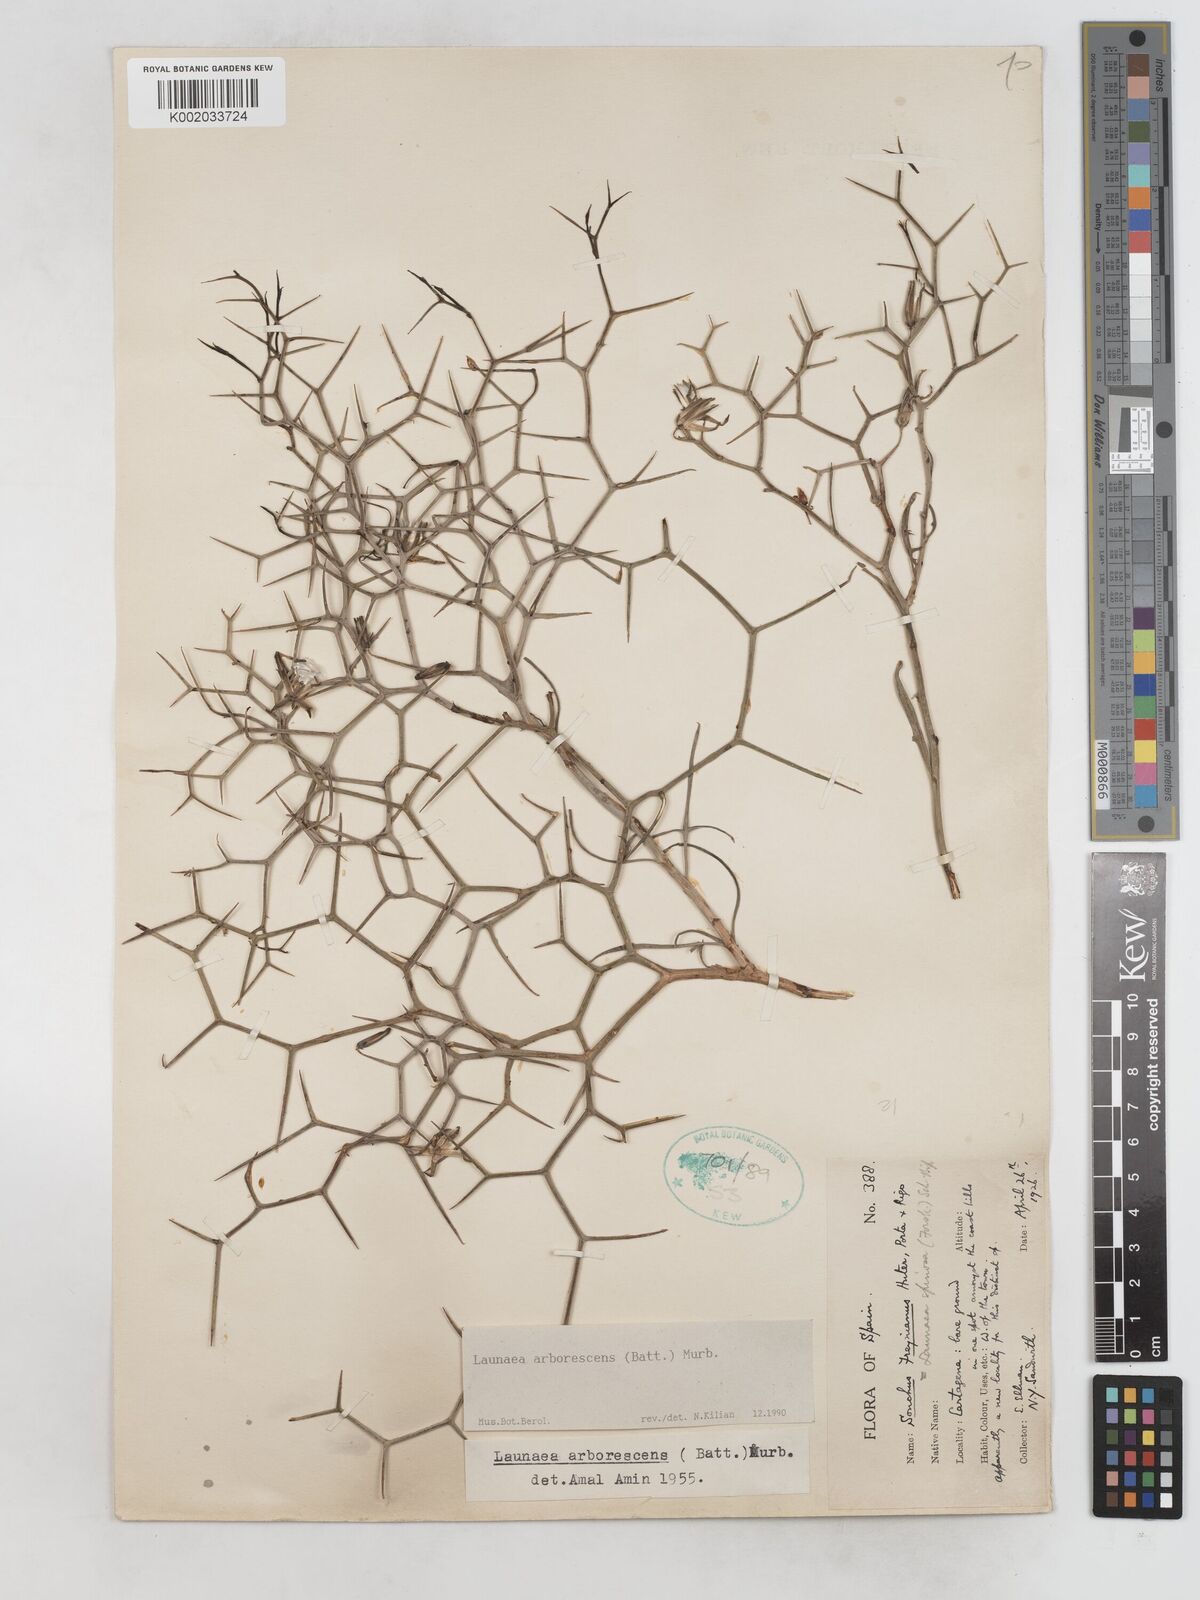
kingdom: Plantae
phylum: Tracheophyta
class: Magnoliopsida
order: Asterales
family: Asteraceae
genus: Launaea
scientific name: Launaea arborescens
